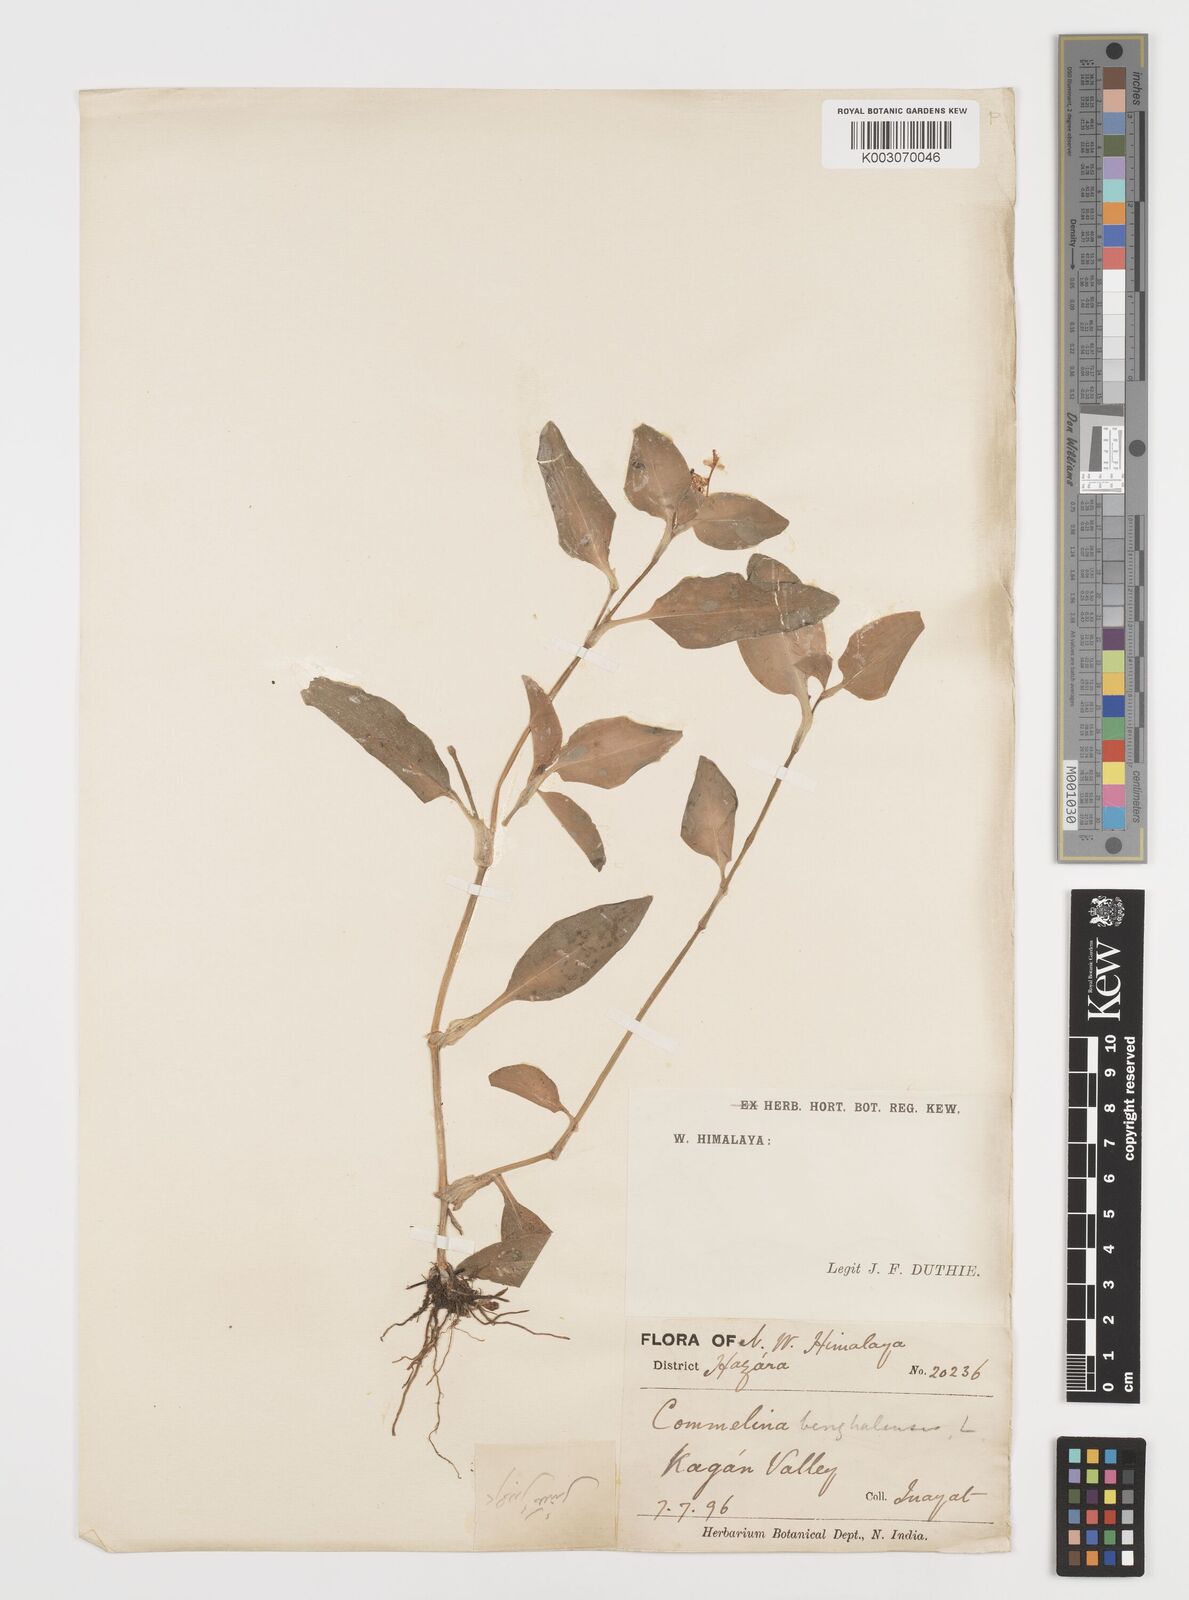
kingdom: Plantae
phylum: Tracheophyta
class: Liliopsida
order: Commelinales
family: Commelinaceae
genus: Commelina
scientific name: Commelina benghalensis
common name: Jio
